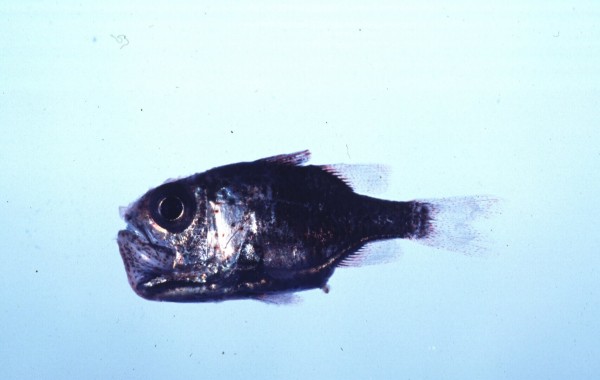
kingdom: Animalia
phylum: Chordata
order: Perciformes
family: Apogonidae
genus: Siphamia
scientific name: Siphamia mossambica
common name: Sea urchin cardinal
